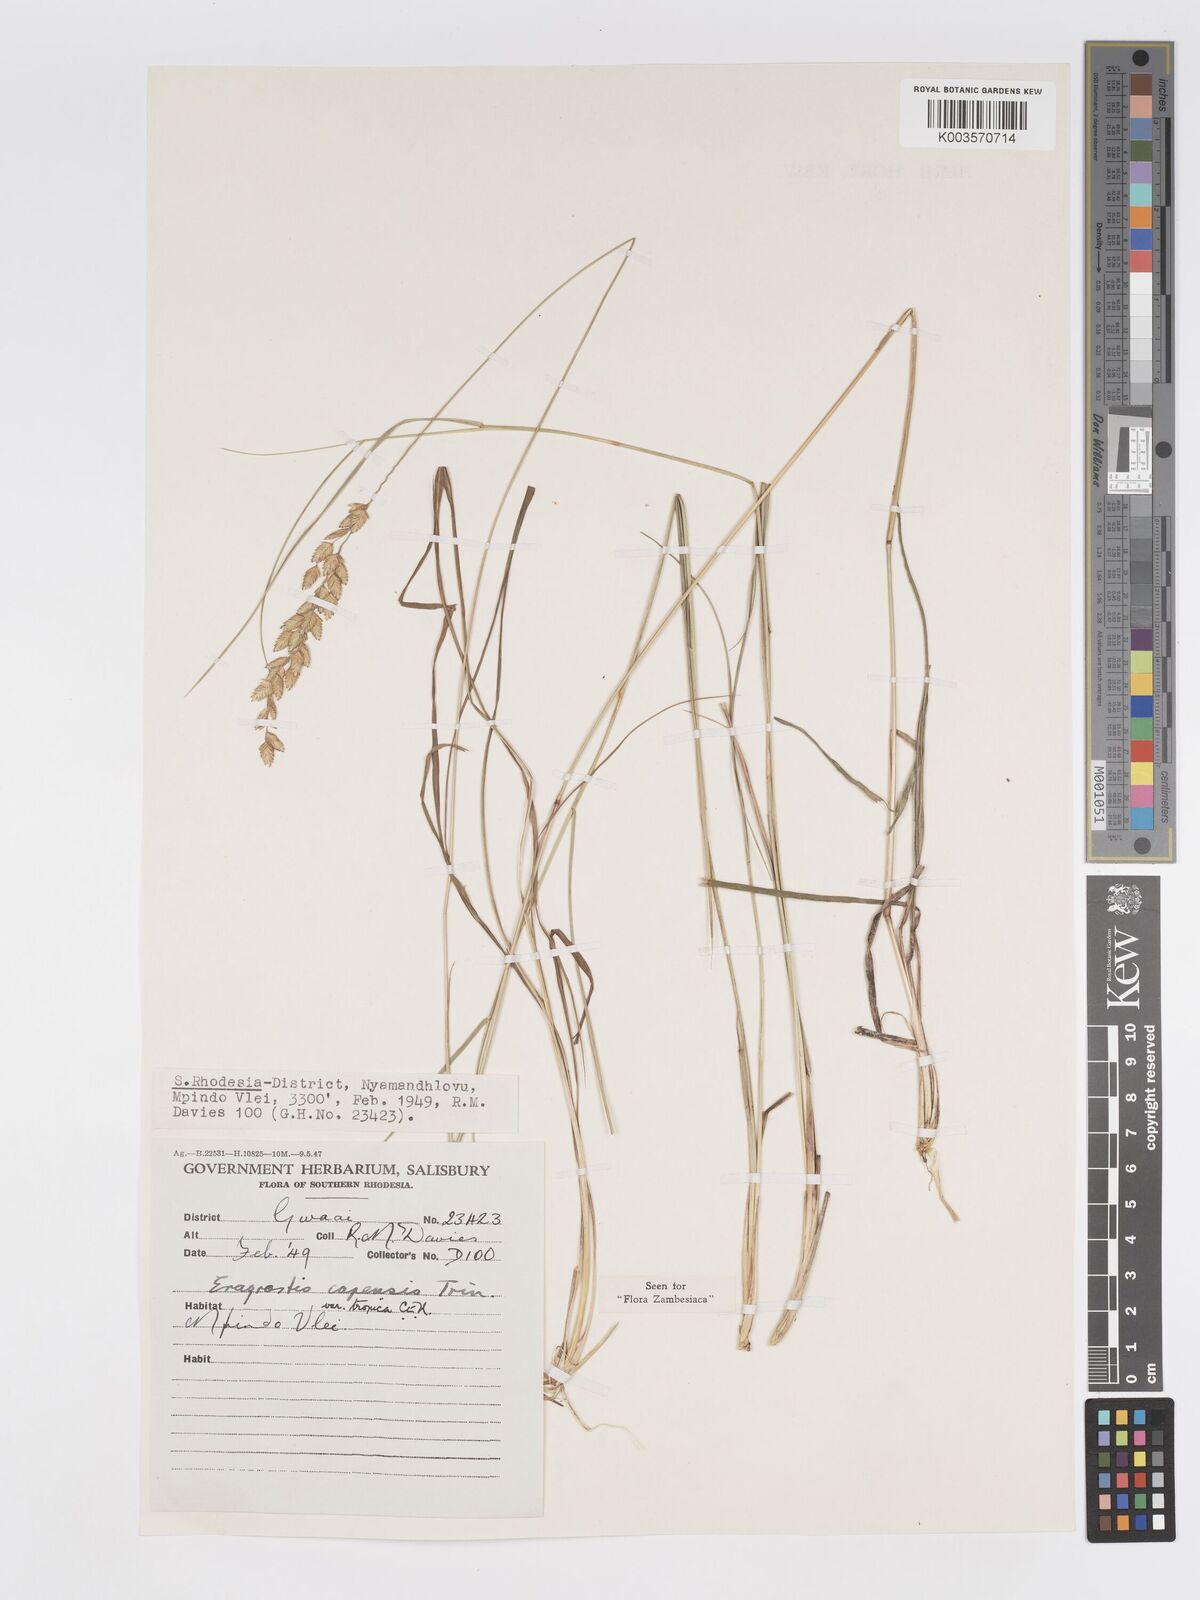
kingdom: Plantae
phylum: Tracheophyta
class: Liliopsida
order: Poales
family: Poaceae
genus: Eragrostis
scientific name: Eragrostis capensis
